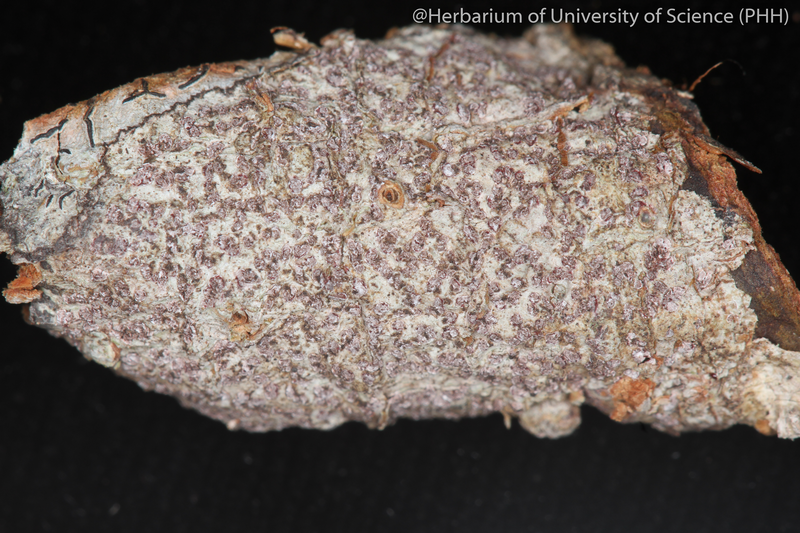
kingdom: Fungi
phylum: Ascomycota
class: Arthoniomycetes
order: Arthoniales
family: Arthoniaceae
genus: Arthonia
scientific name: Arthonia
